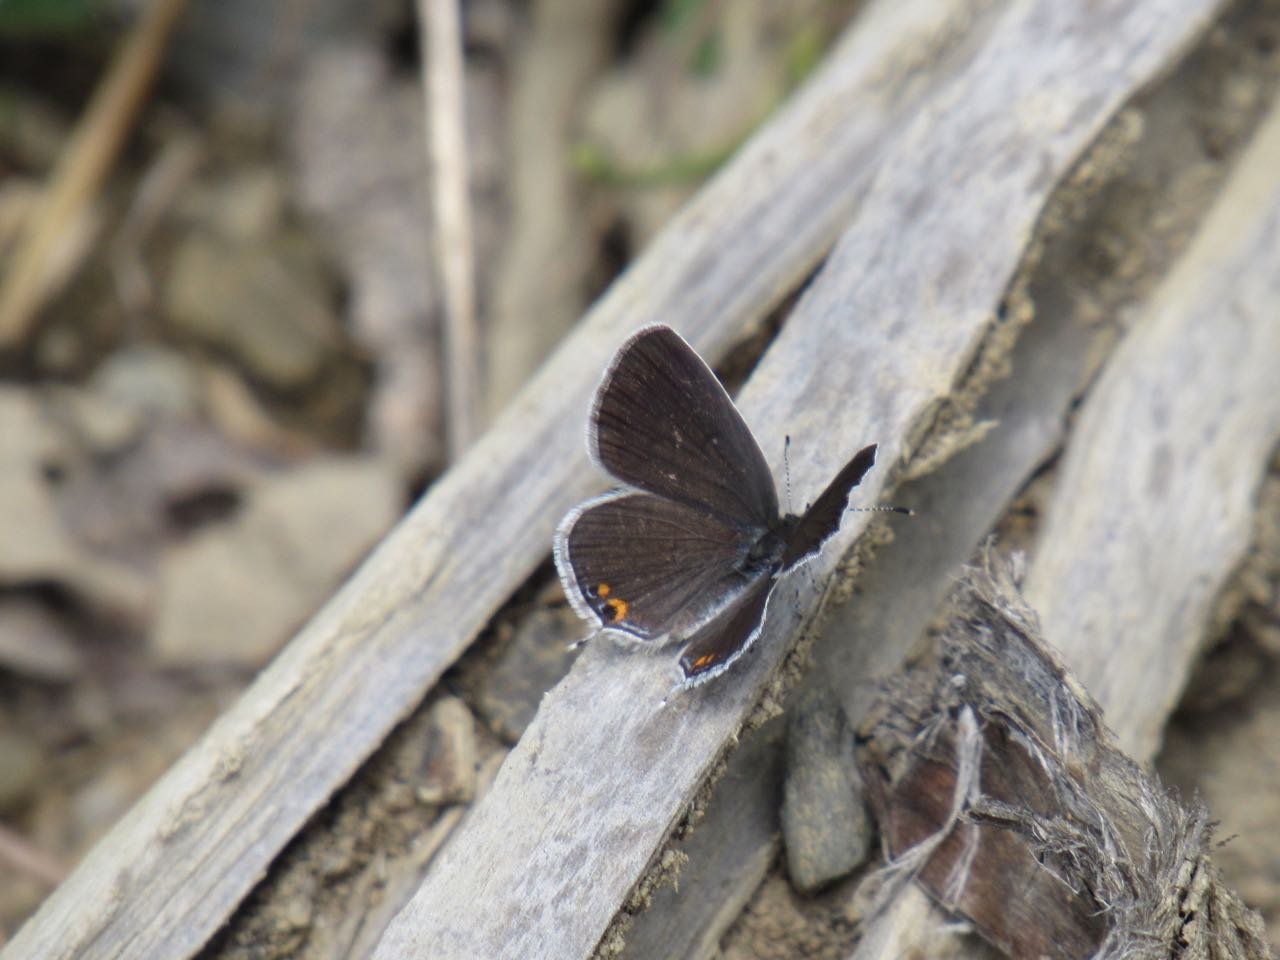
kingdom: Animalia
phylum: Arthropoda
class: Insecta
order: Lepidoptera
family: Lycaenidae
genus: Elkalyce
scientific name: Elkalyce comyntas
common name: Eastern Tailed-Blue
